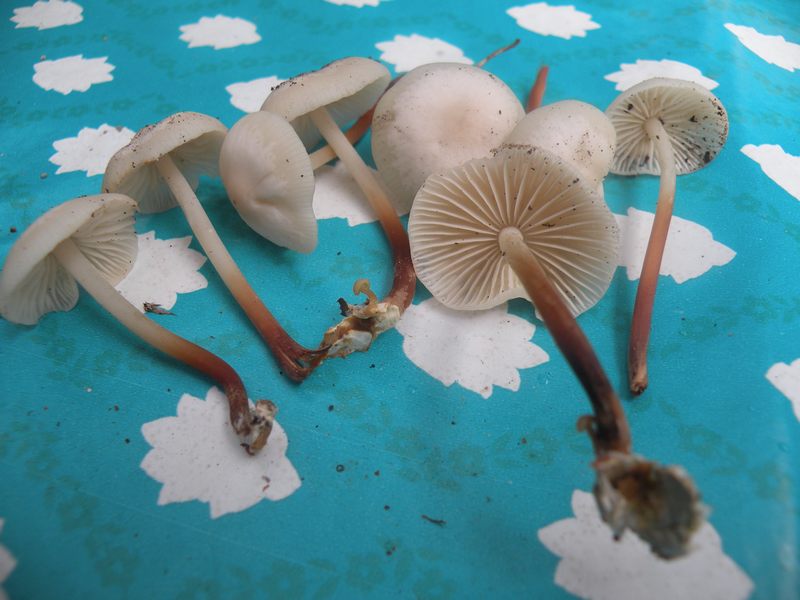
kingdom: Fungi
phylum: Basidiomycota
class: Agaricomycetes
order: Agaricales
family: Marasmiaceae
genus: Marasmius
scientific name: Marasmius wynneae
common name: hvælvet bruskhat
